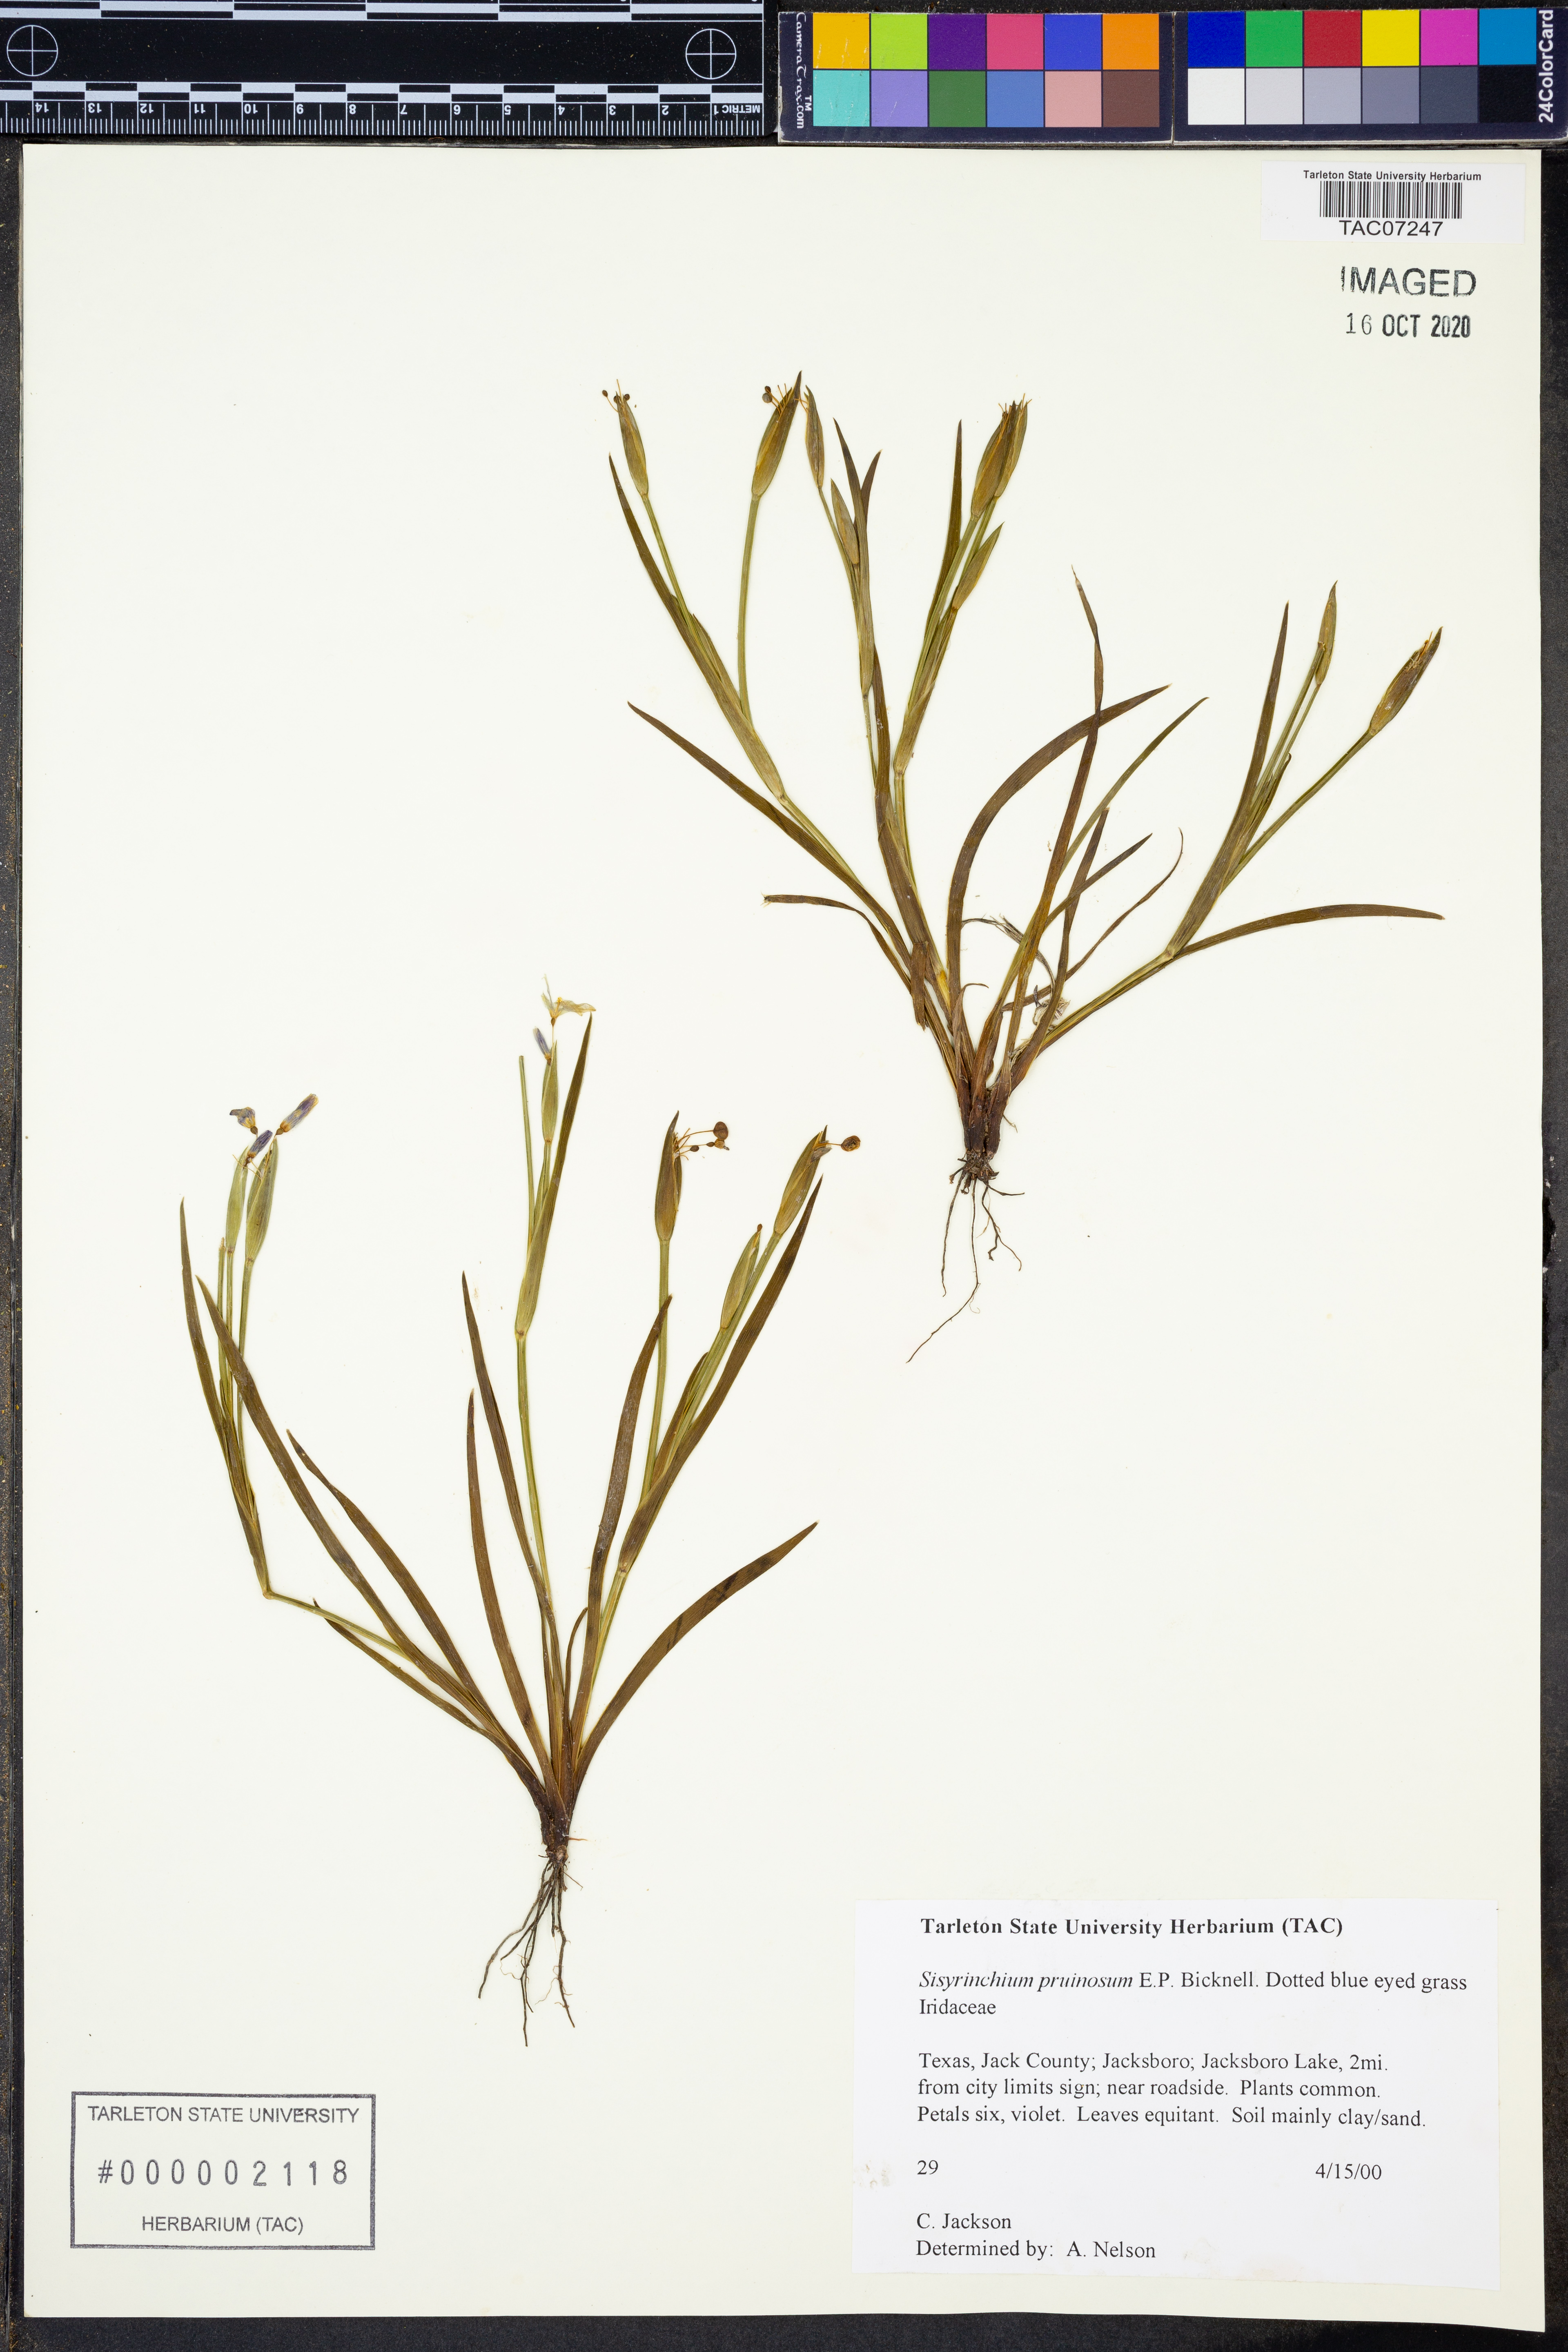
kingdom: Plantae
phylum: Tracheophyta
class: Liliopsida
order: Asparagales
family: Iridaceae
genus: Sisyrinchium
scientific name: Sisyrinchium pruinosum
